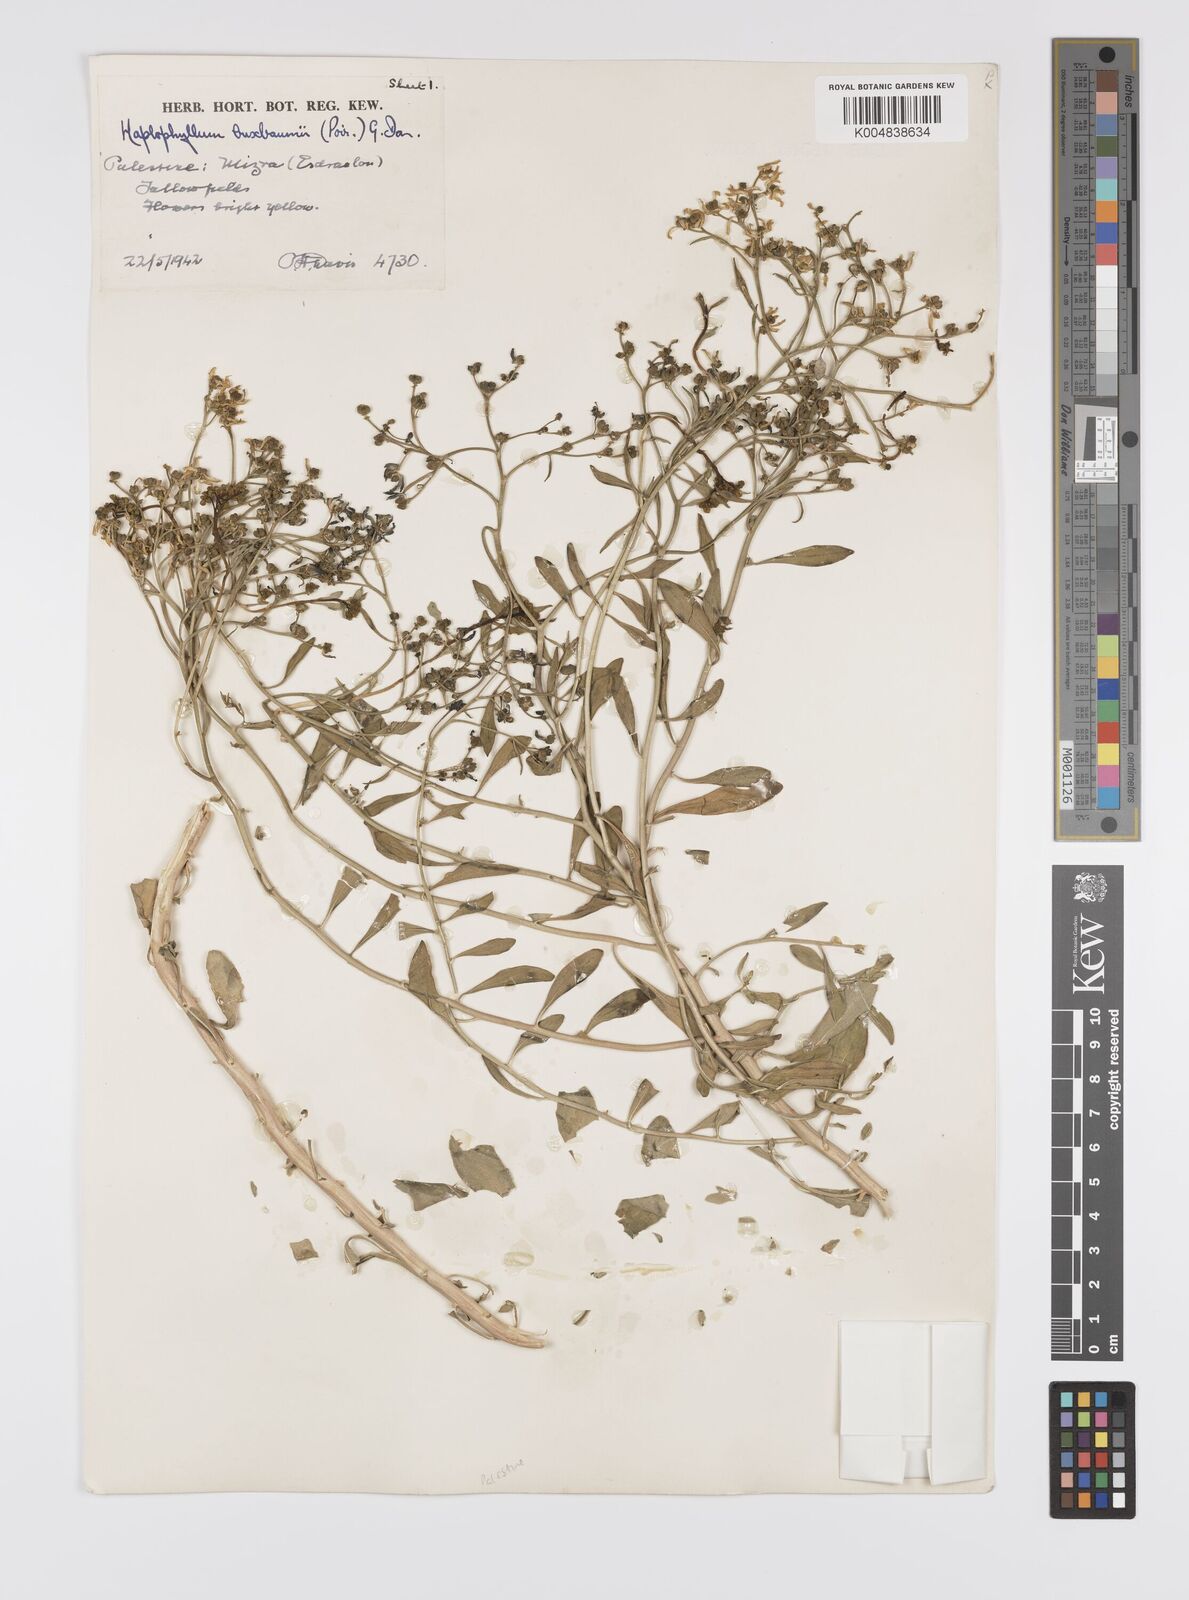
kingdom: Plantae
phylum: Tracheophyta
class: Magnoliopsida
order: Sapindales
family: Rutaceae
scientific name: Rutaceae
